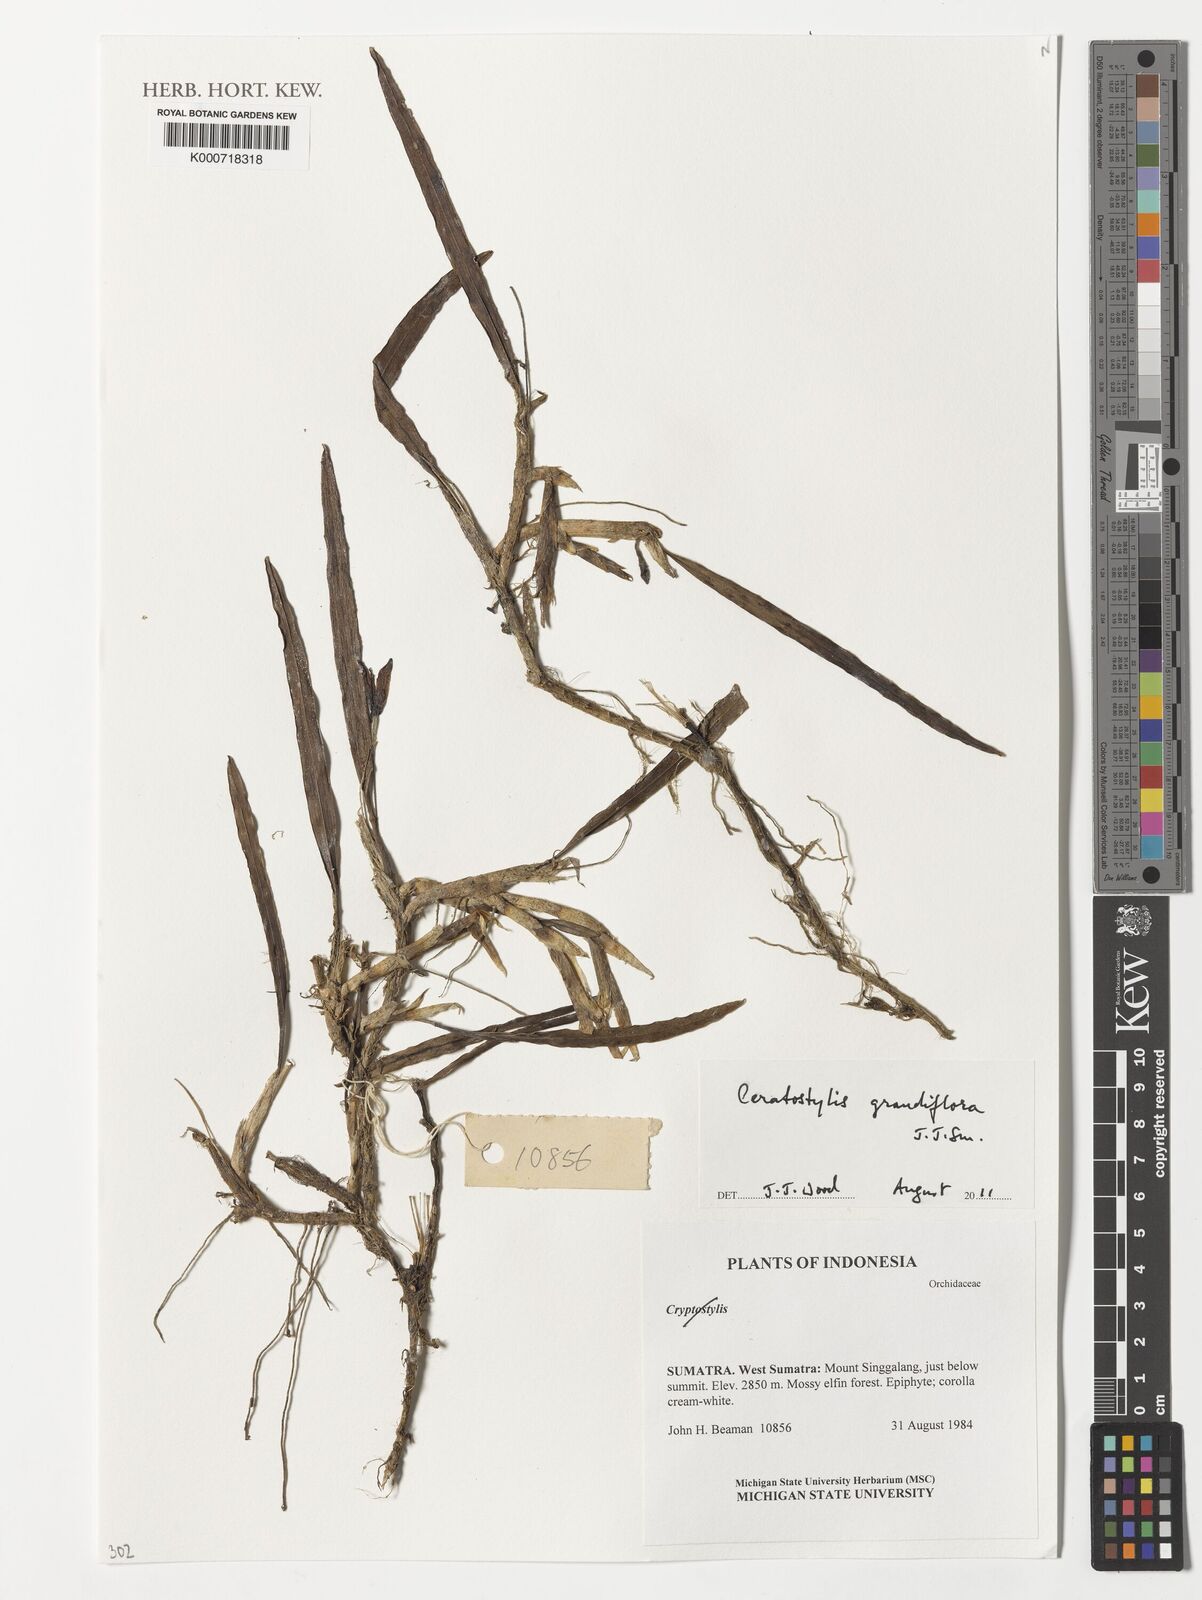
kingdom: Plantae
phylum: Tracheophyta
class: Liliopsida
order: Asparagales
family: Orchidaceae
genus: Ceratostylis
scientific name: Ceratostylis grandiflora
